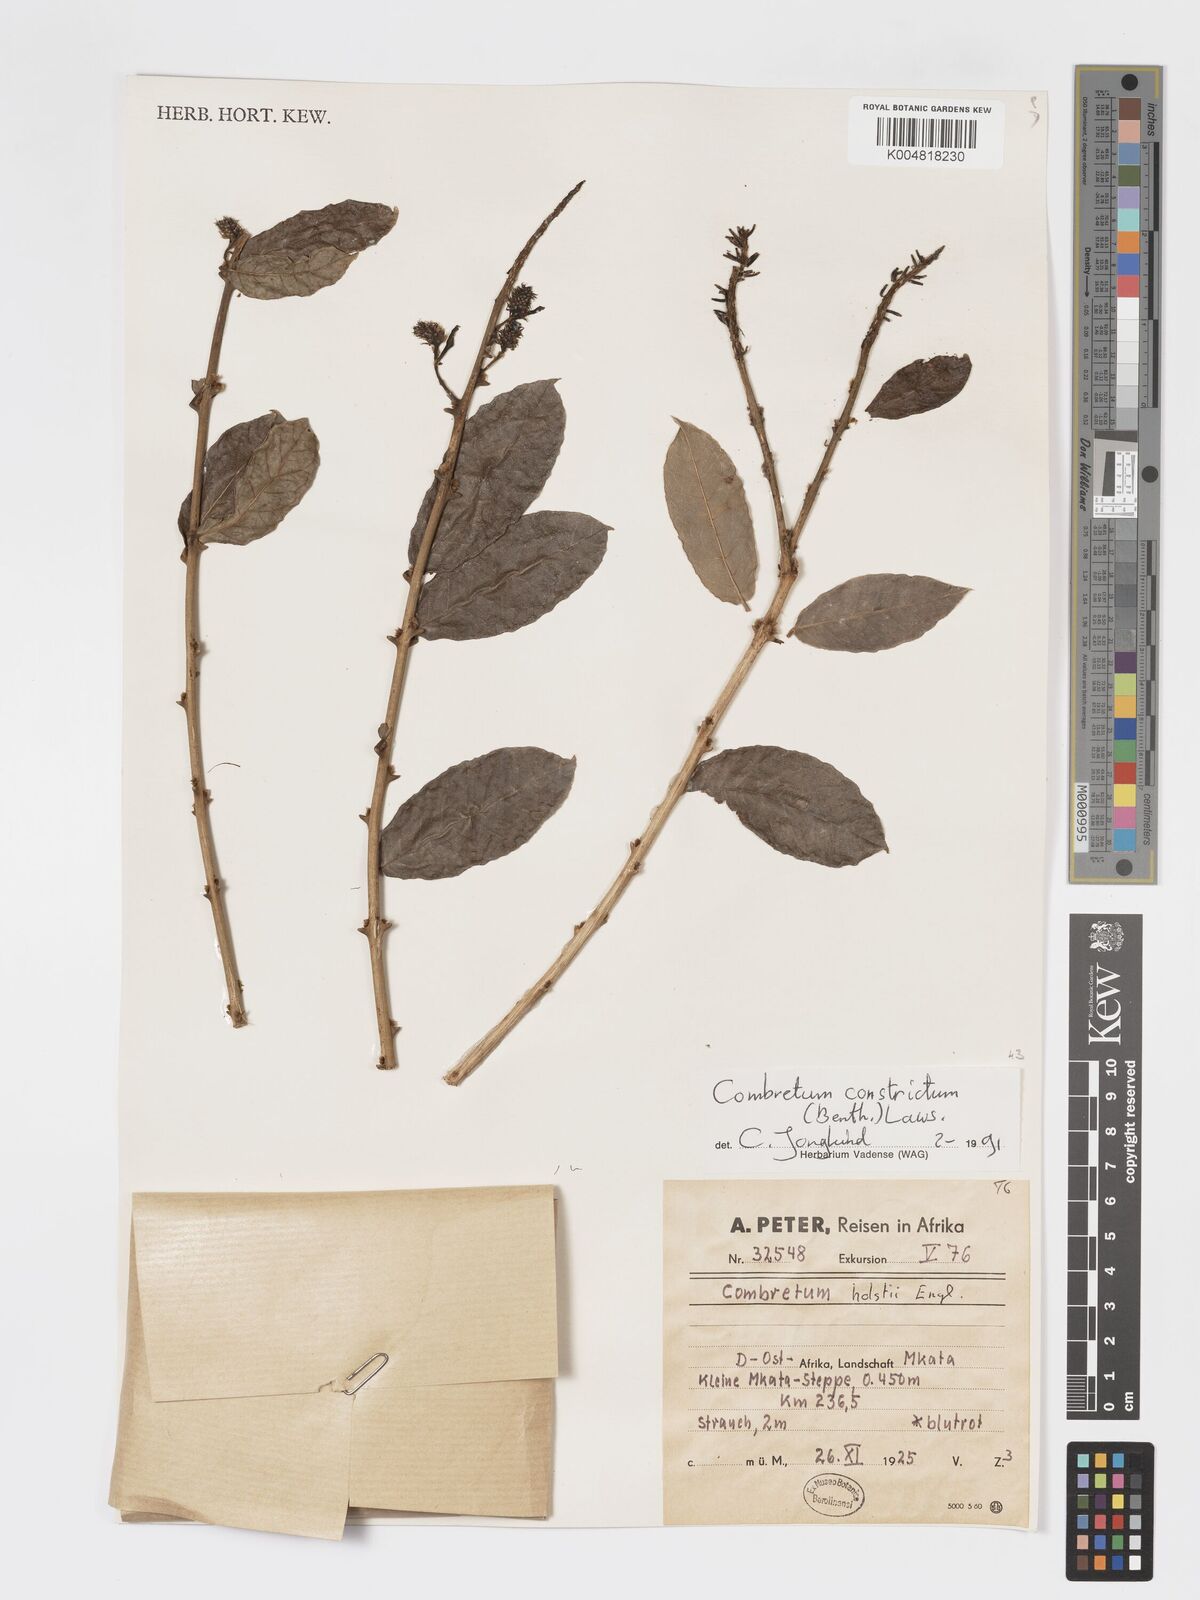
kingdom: Plantae
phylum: Tracheophyta
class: Magnoliopsida
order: Myrtales
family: Combretaceae
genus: Combretum
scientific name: Combretum constrictum
